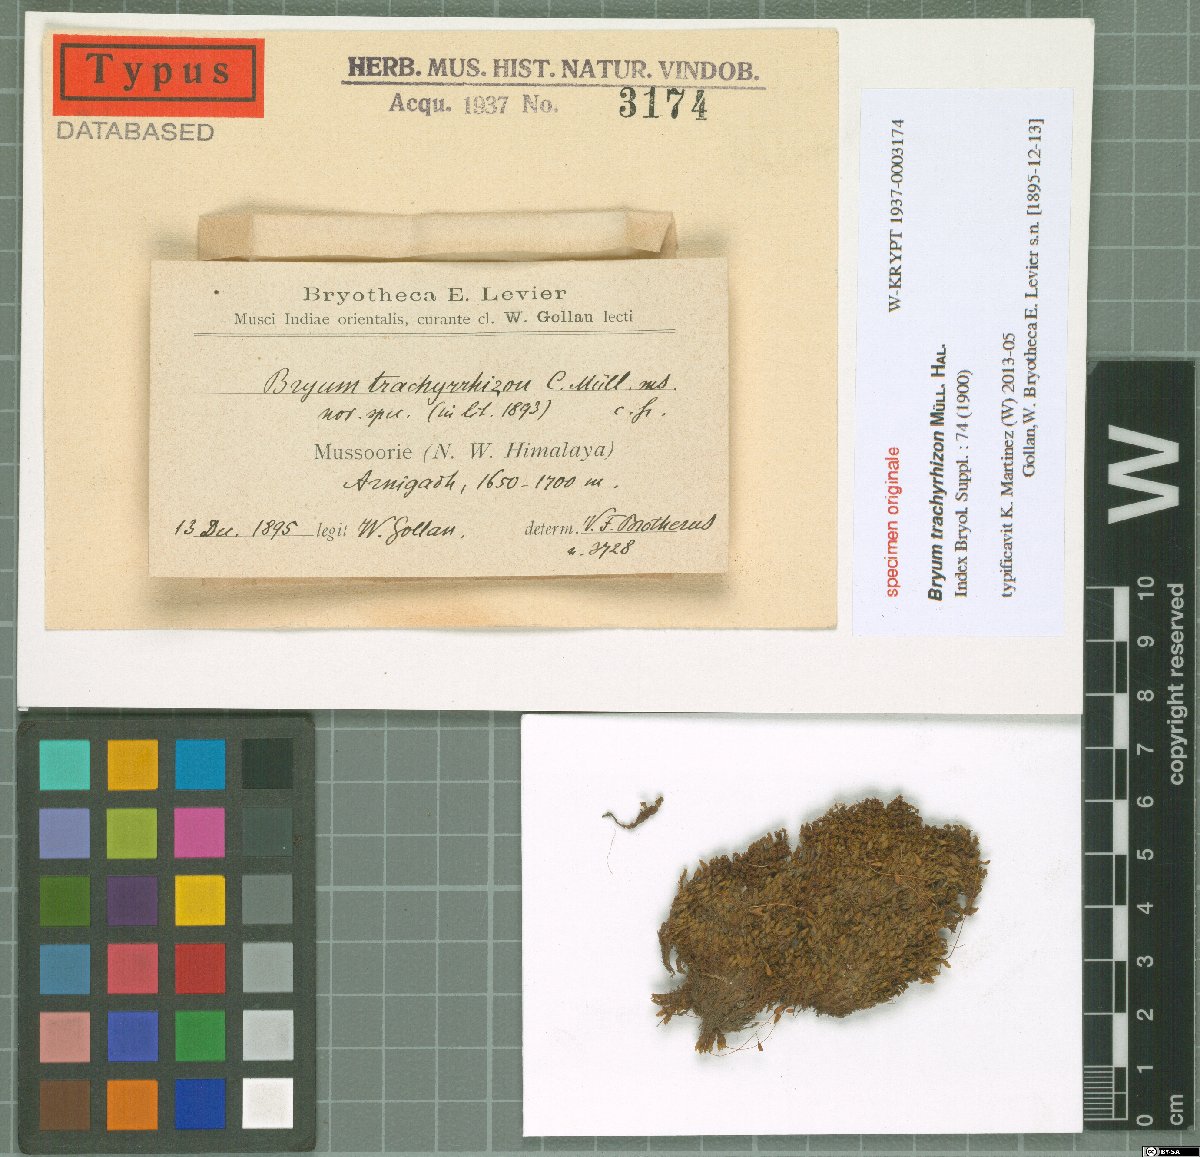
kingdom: Plantae
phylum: Bryophyta
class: Bryopsida
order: Bryales
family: Bryaceae
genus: Bryum
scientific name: Bryum
